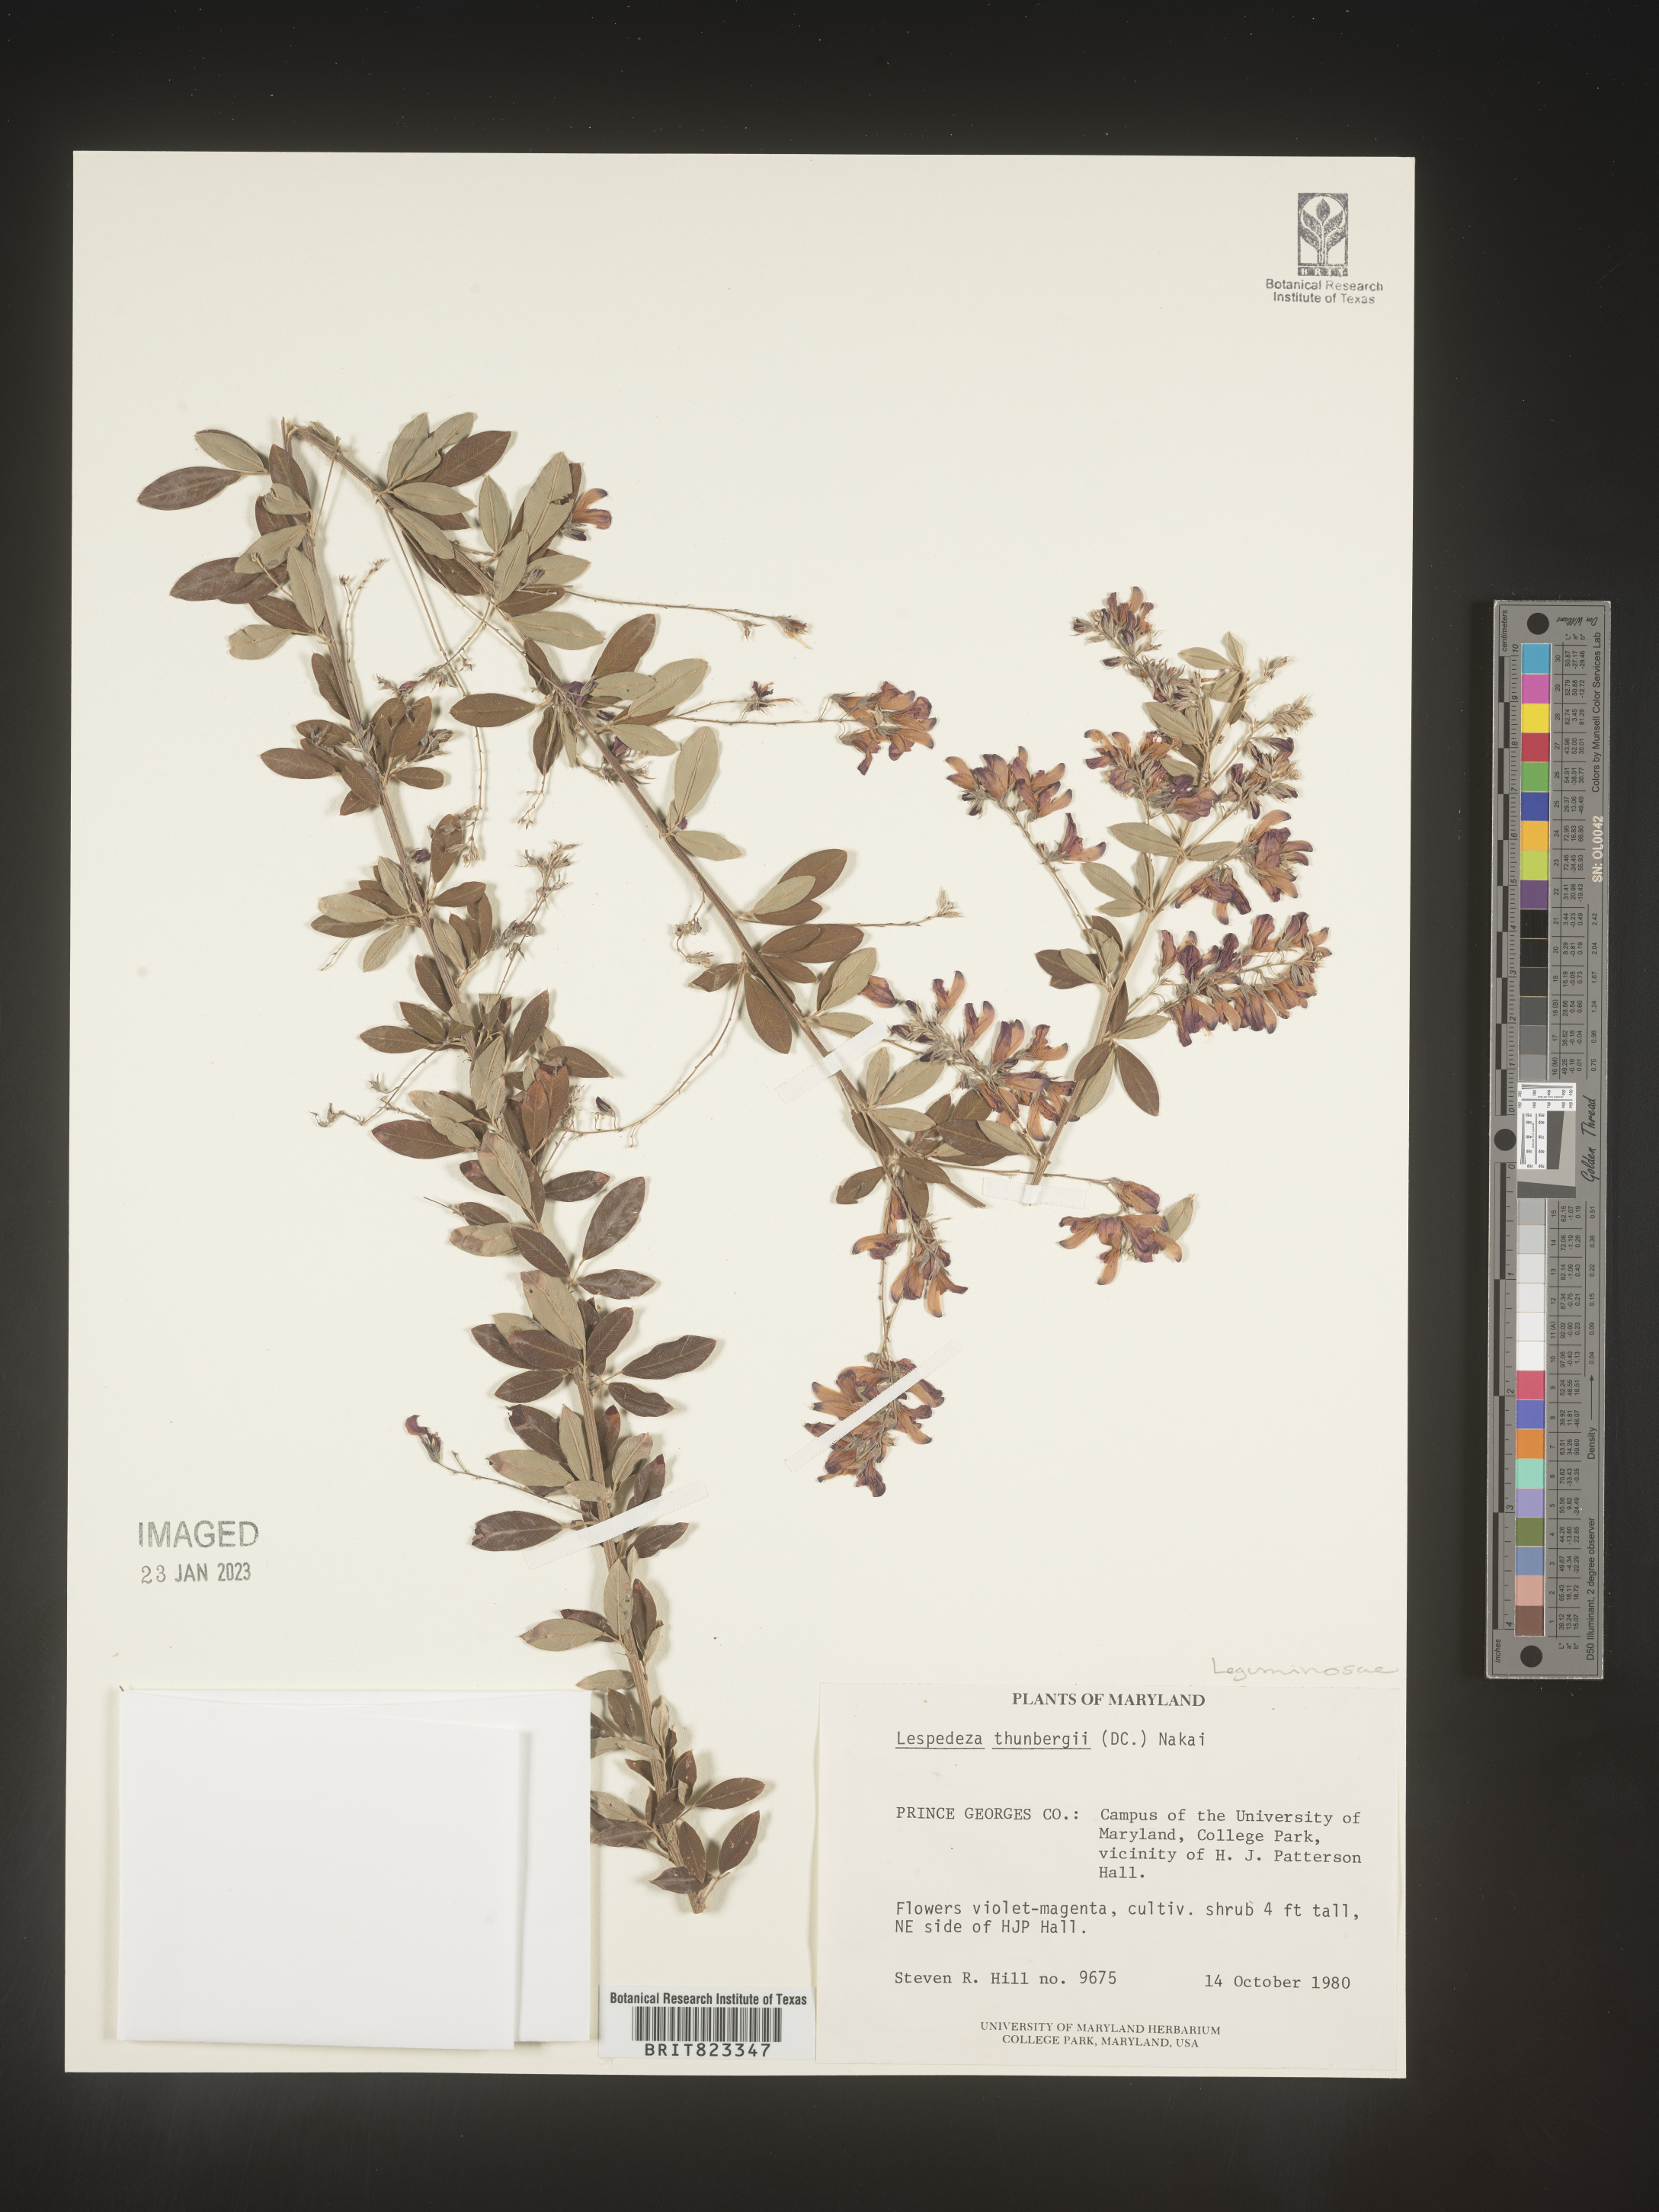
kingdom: Plantae
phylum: Tracheophyta
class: Magnoliopsida
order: Fabales
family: Fabaceae
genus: Lespedeza
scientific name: Lespedeza thunbergii
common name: Thunberg's lespedeza
